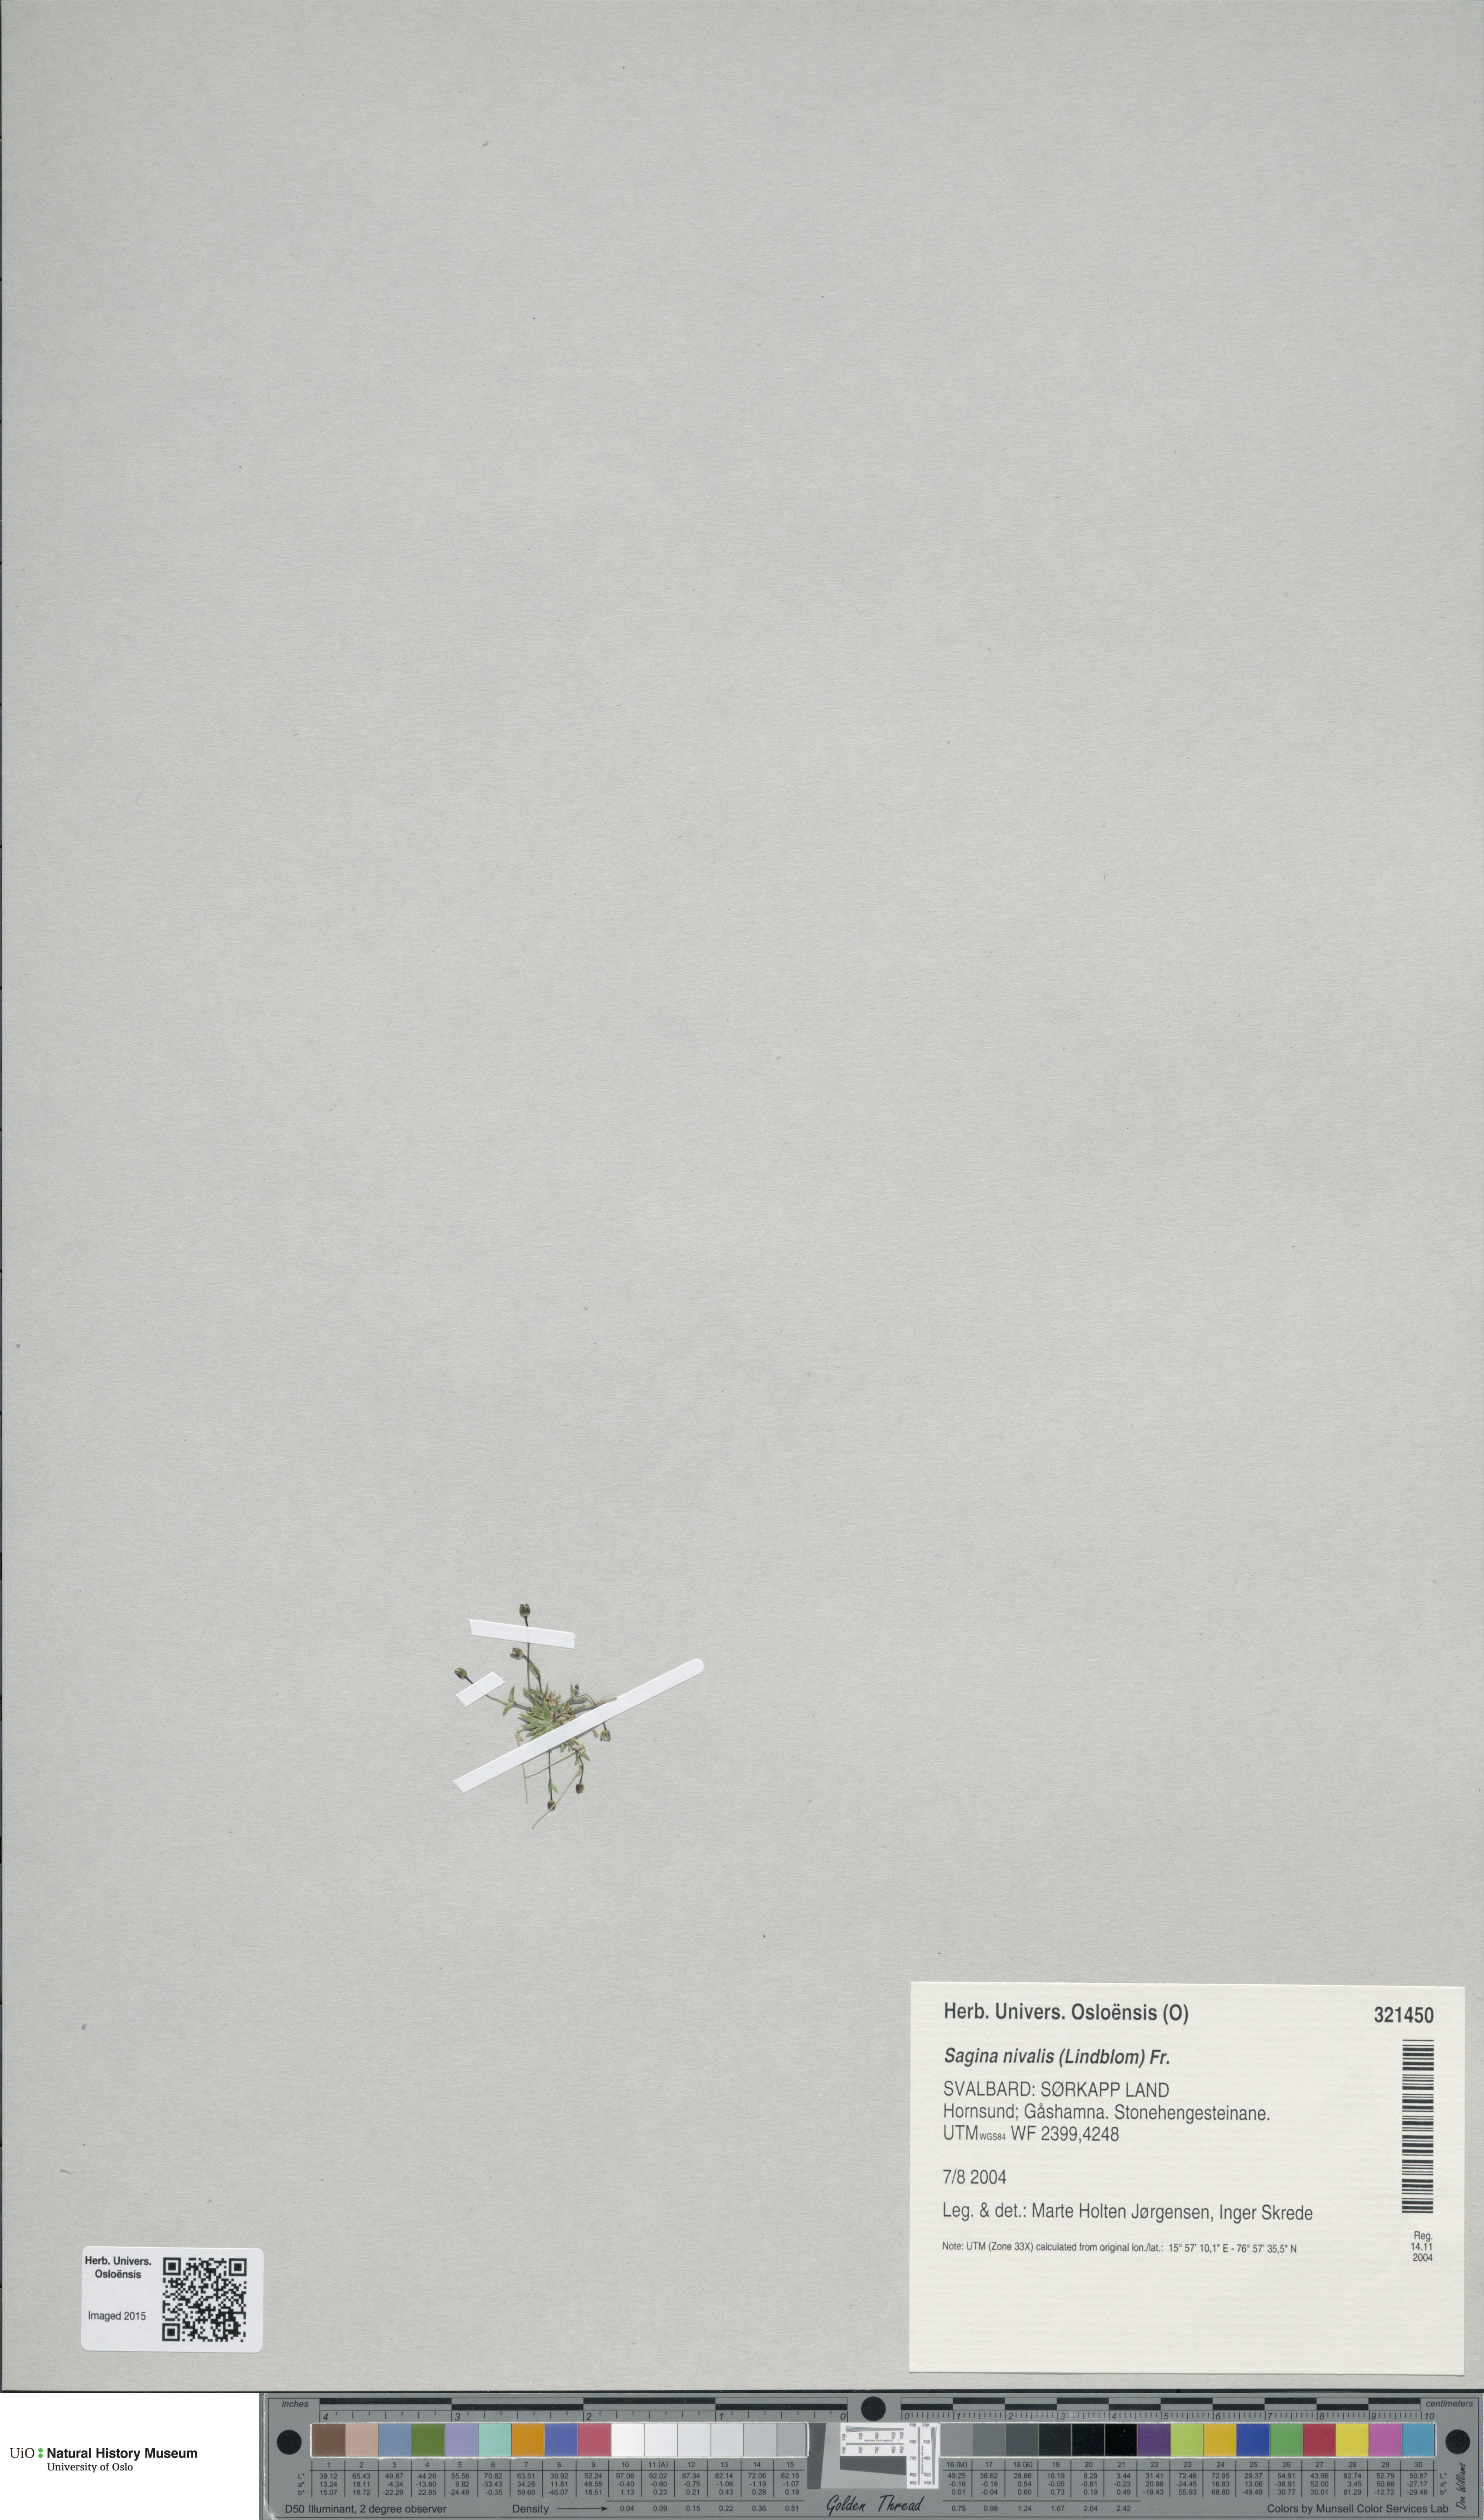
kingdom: Plantae
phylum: Tracheophyta
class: Magnoliopsida
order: Caryophyllales
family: Caryophyllaceae
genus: Sagina
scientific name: Sagina nivalis
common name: Snow pearlwort
